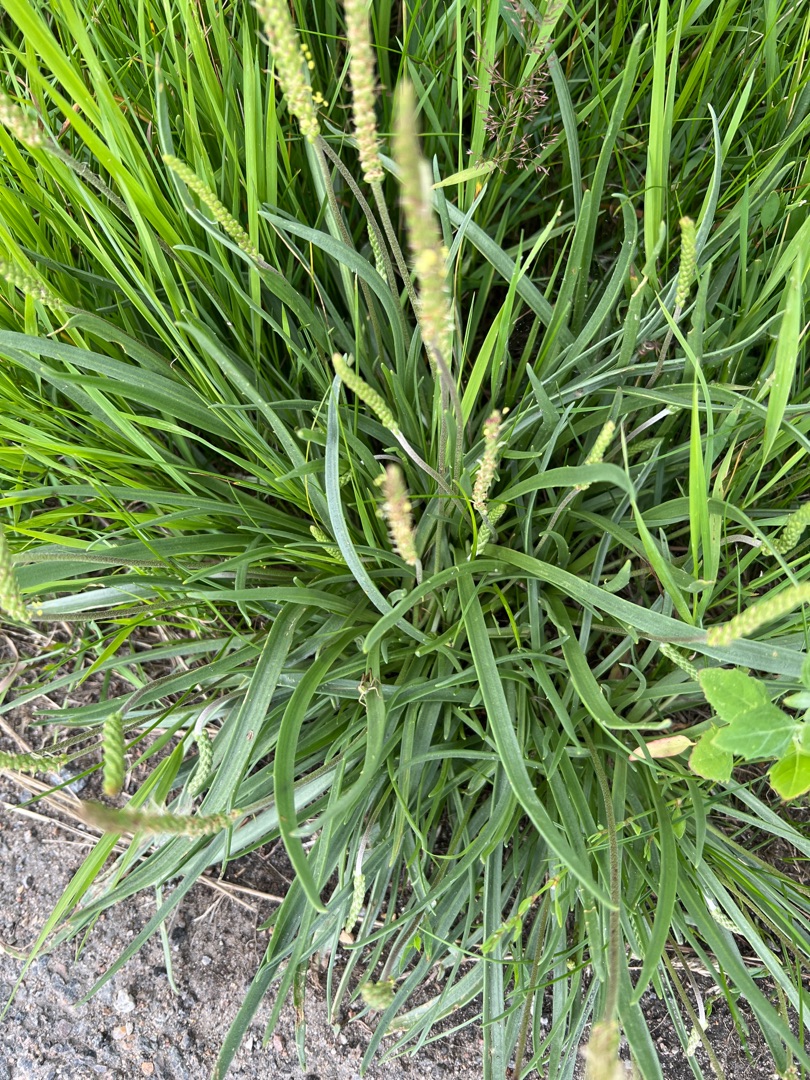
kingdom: Plantae
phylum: Tracheophyta
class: Magnoliopsida
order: Lamiales
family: Plantaginaceae
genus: Plantago
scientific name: Plantago maritima
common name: Strand-vejbred
